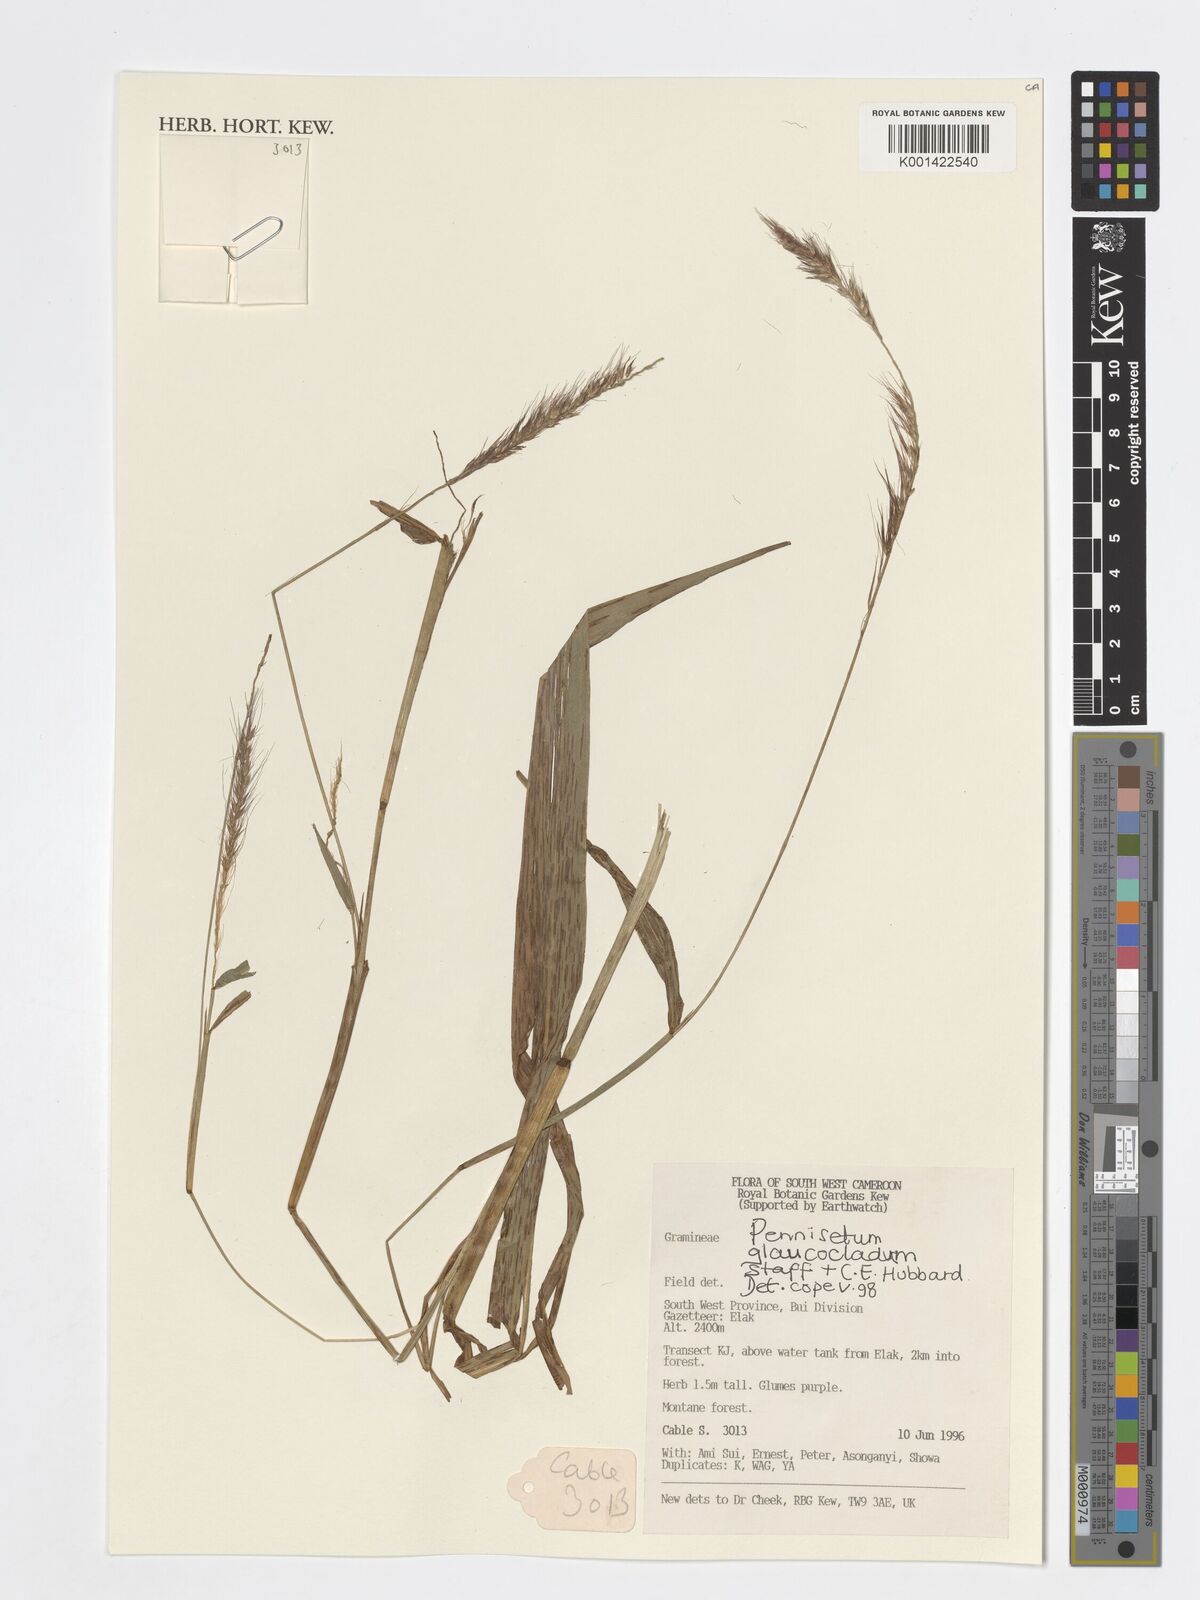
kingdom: Plantae
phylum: Tracheophyta
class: Liliopsida
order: Poales
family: Poaceae
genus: Cenchrus
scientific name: Cenchrus americanus
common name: Pearl millet
